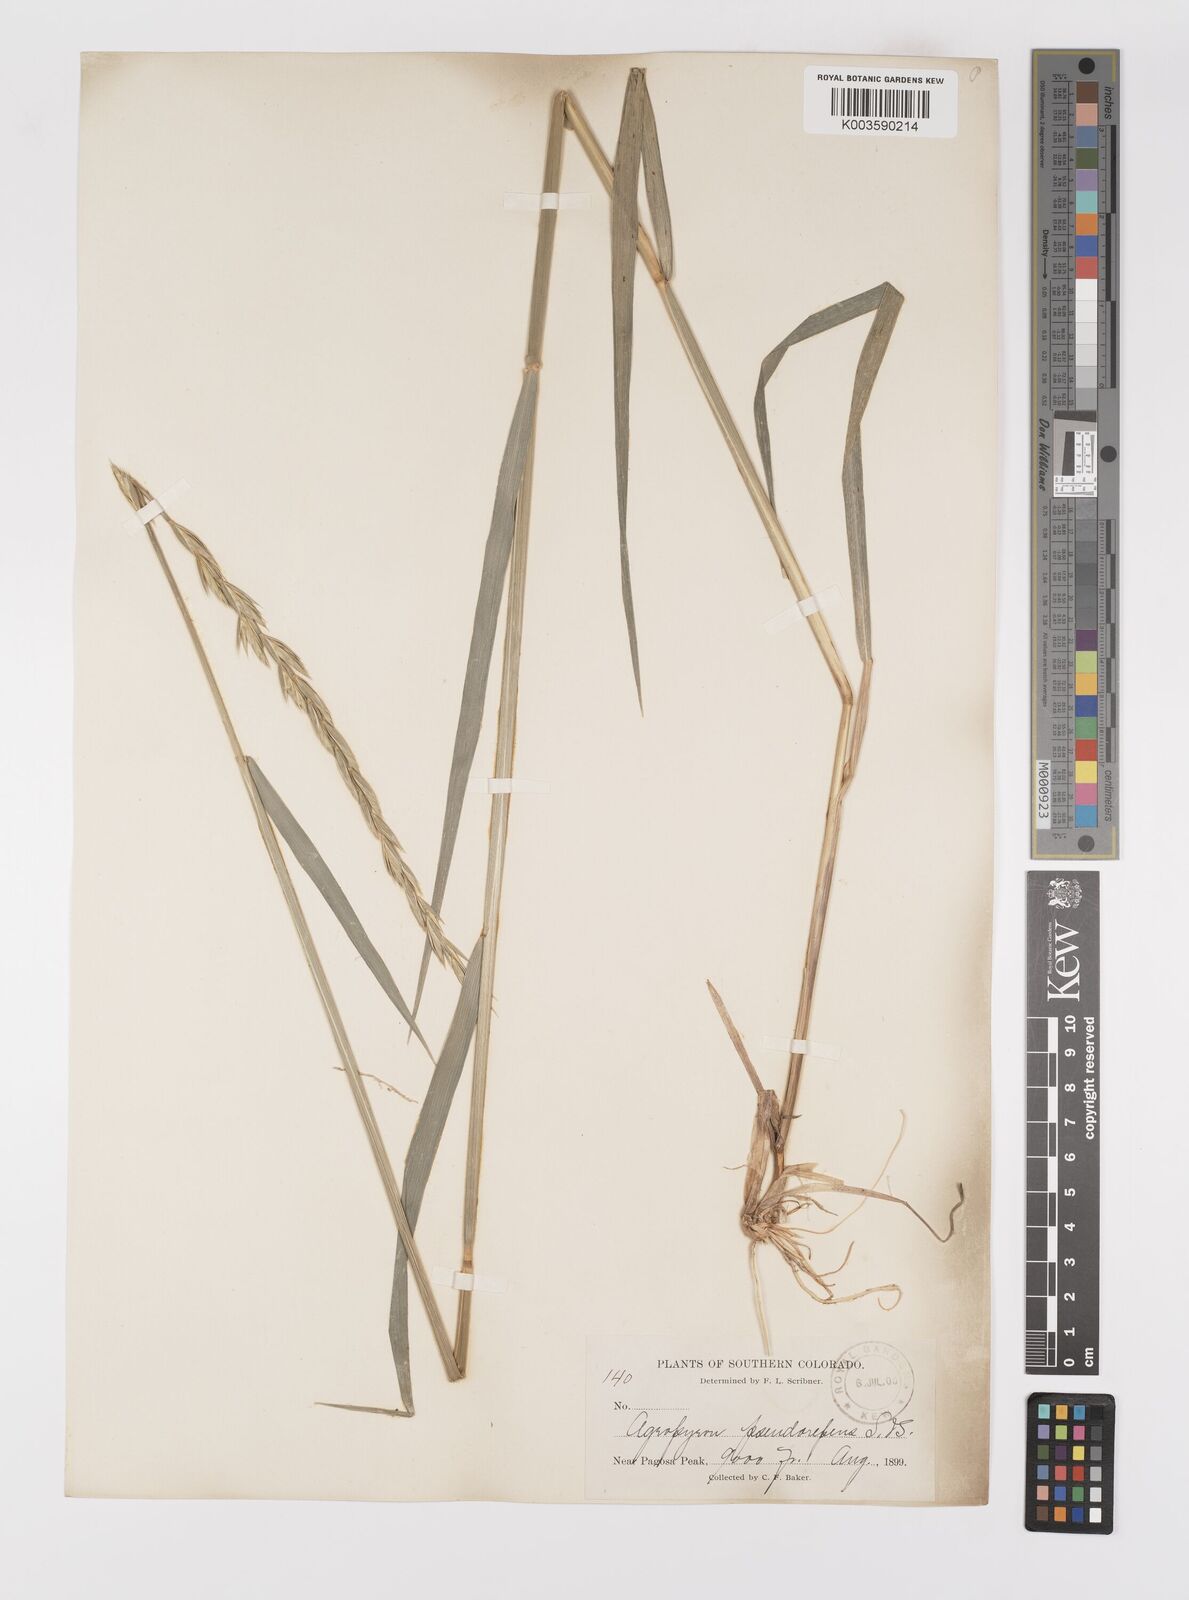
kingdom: Plantae
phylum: Tracheophyta
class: Liliopsida
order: Poales
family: Poaceae
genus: Elymus
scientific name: Elymus violaceus
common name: Arctic wheatgrass
